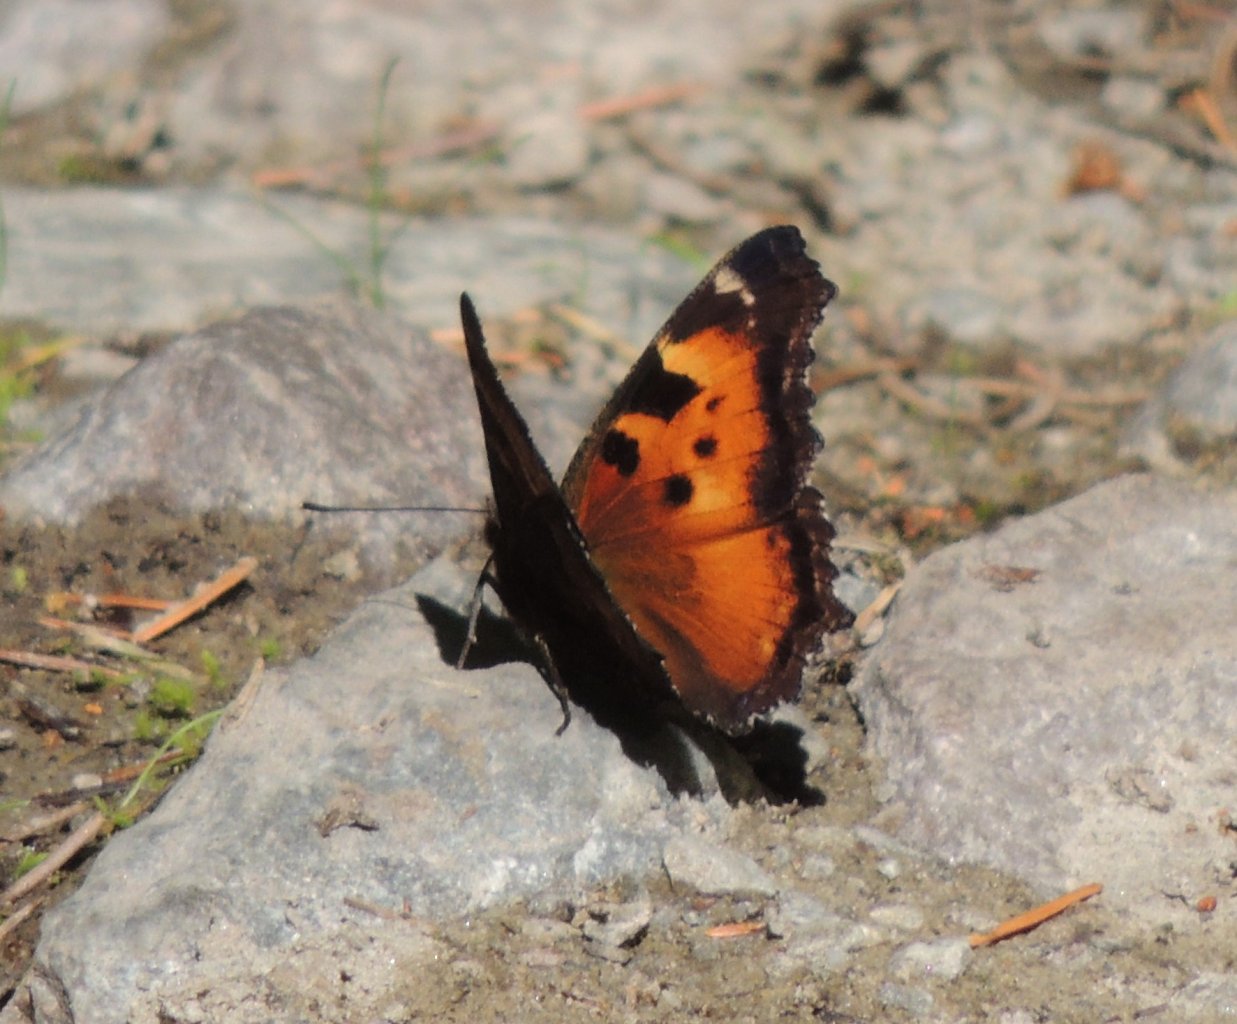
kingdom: Animalia
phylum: Arthropoda
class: Insecta
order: Lepidoptera
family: Nymphalidae
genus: Nymphalis
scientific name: Nymphalis californica
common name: California Tortoiseshell
